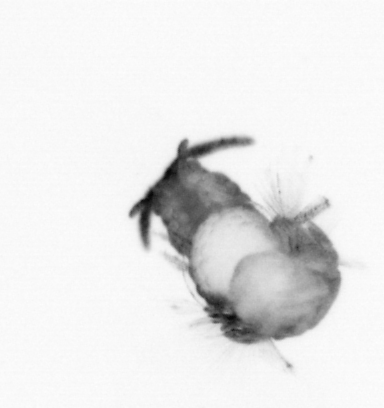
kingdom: Animalia
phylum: Annelida
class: Polychaeta
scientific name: Polychaeta
